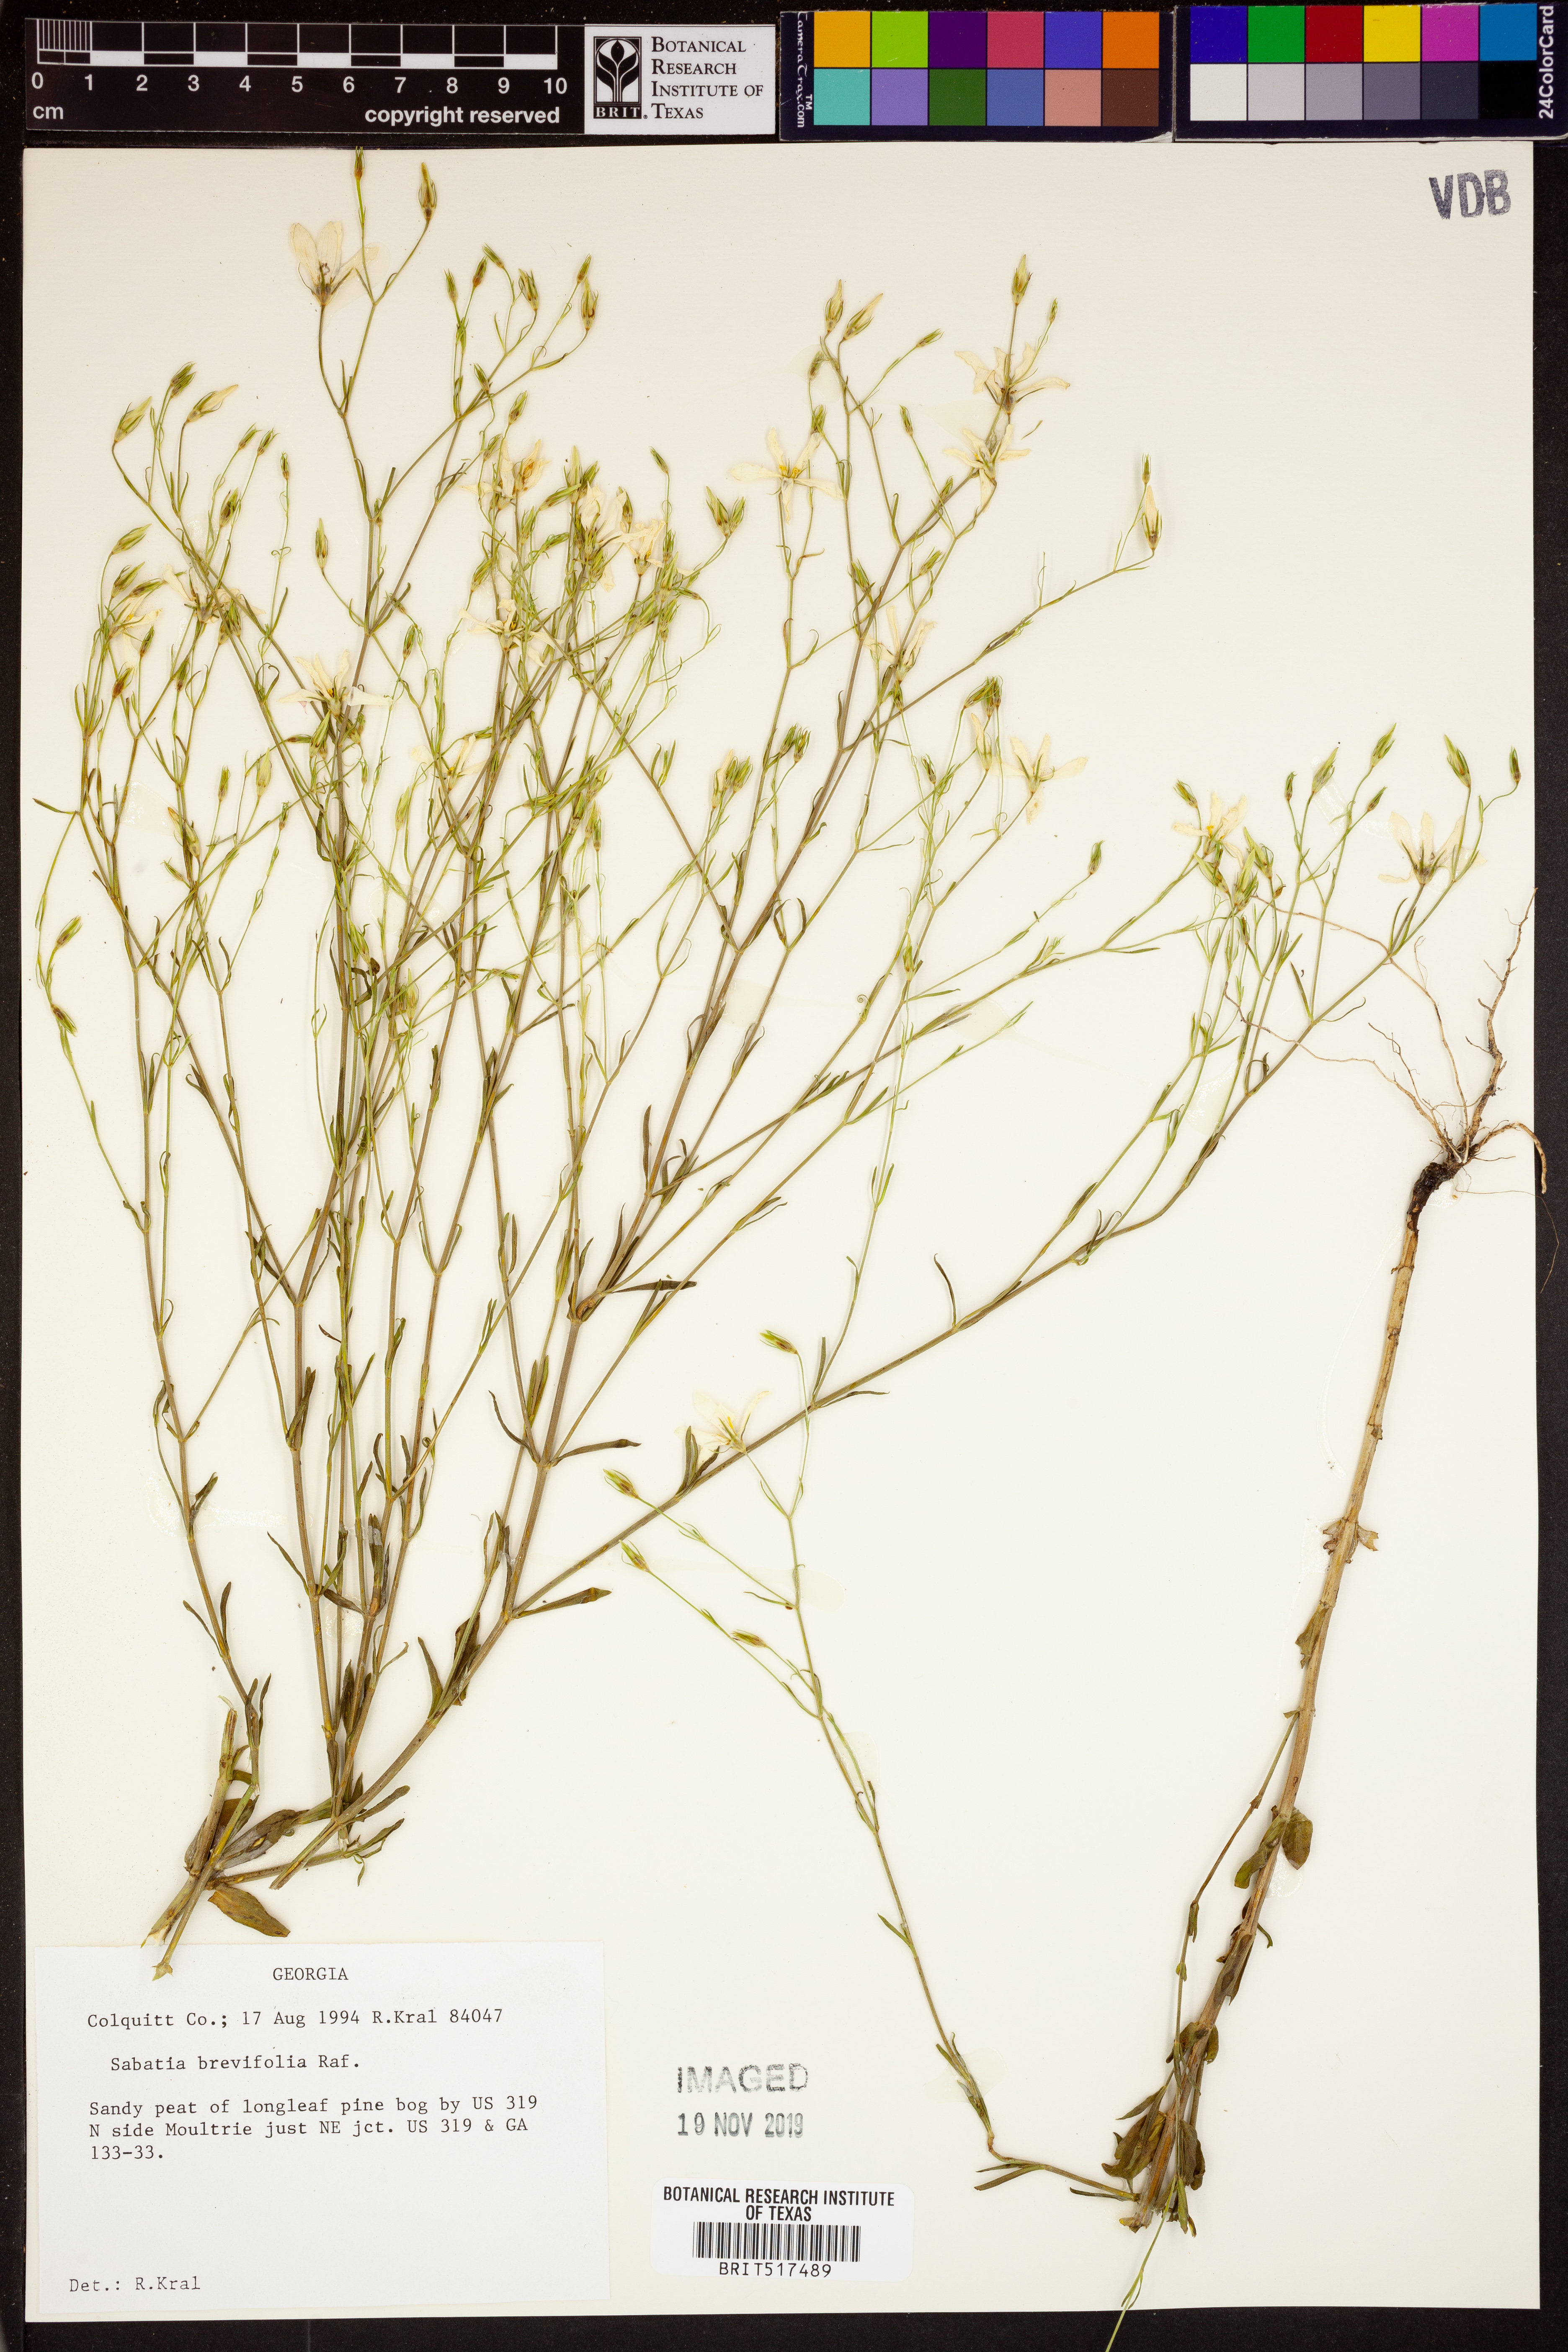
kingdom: Plantae
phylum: Tracheophyta
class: Magnoliopsida
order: Gentianales
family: Gentianaceae
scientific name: Gentianaceae
